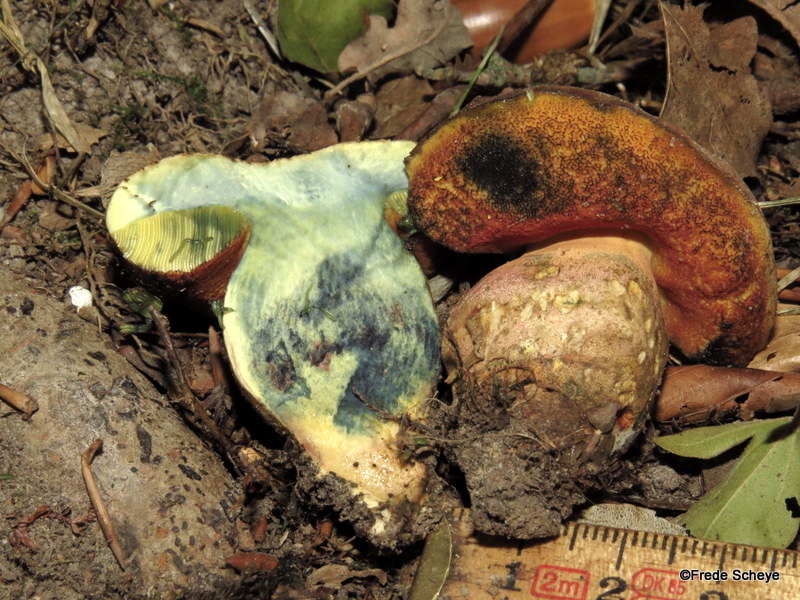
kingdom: Fungi
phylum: Basidiomycota
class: Agaricomycetes
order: Boletales
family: Boletaceae
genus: Neoboletus
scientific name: Neoboletus erythropus
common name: punktstokket indigorørhat
